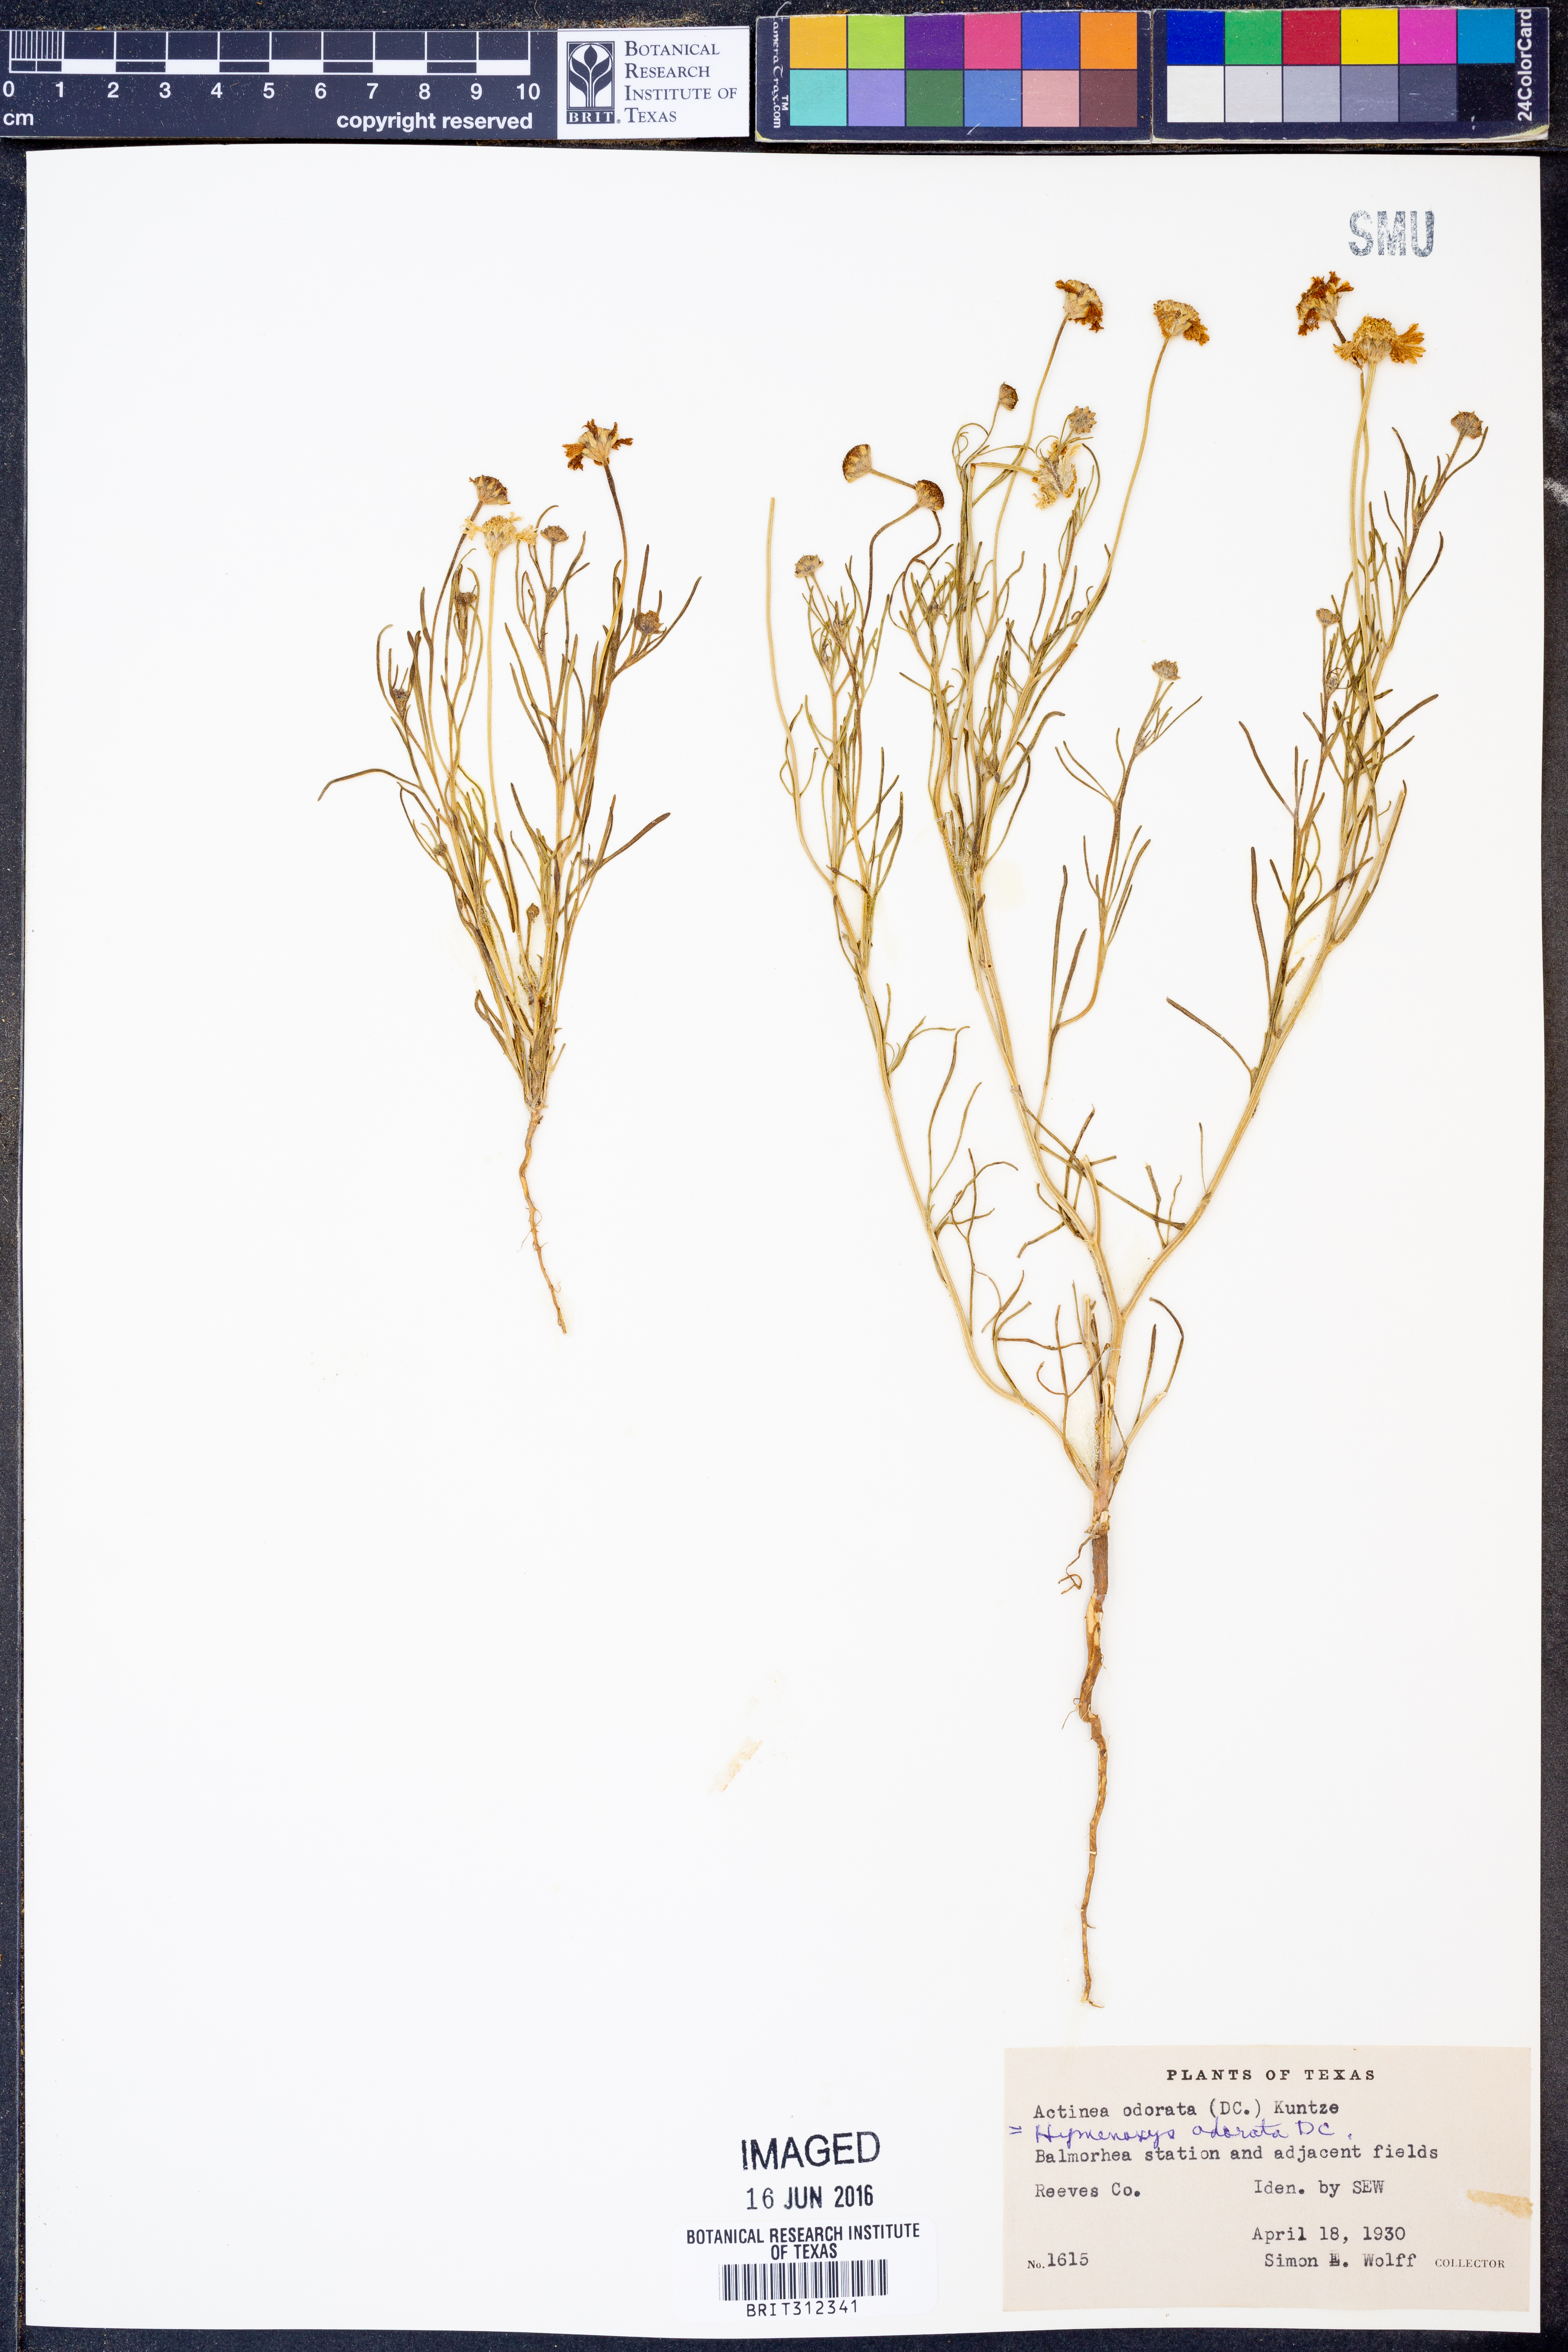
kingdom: Plantae
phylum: Tracheophyta
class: Magnoliopsida
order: Asterales
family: Asteraceae
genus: Hymenoxys
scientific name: Hymenoxys odorata
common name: Bitter rubberweed
